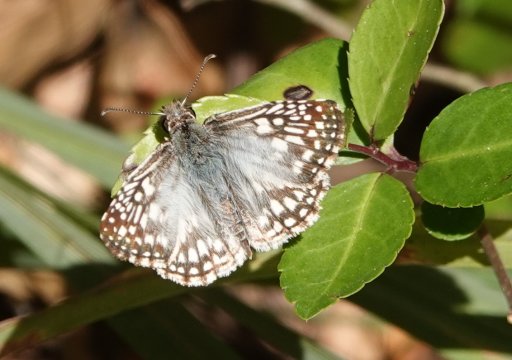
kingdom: Animalia
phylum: Arthropoda
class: Insecta
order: Lepidoptera
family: Hesperiidae
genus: Pyrgus
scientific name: Pyrgus oileus
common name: Tropical Checkered-Skipper
